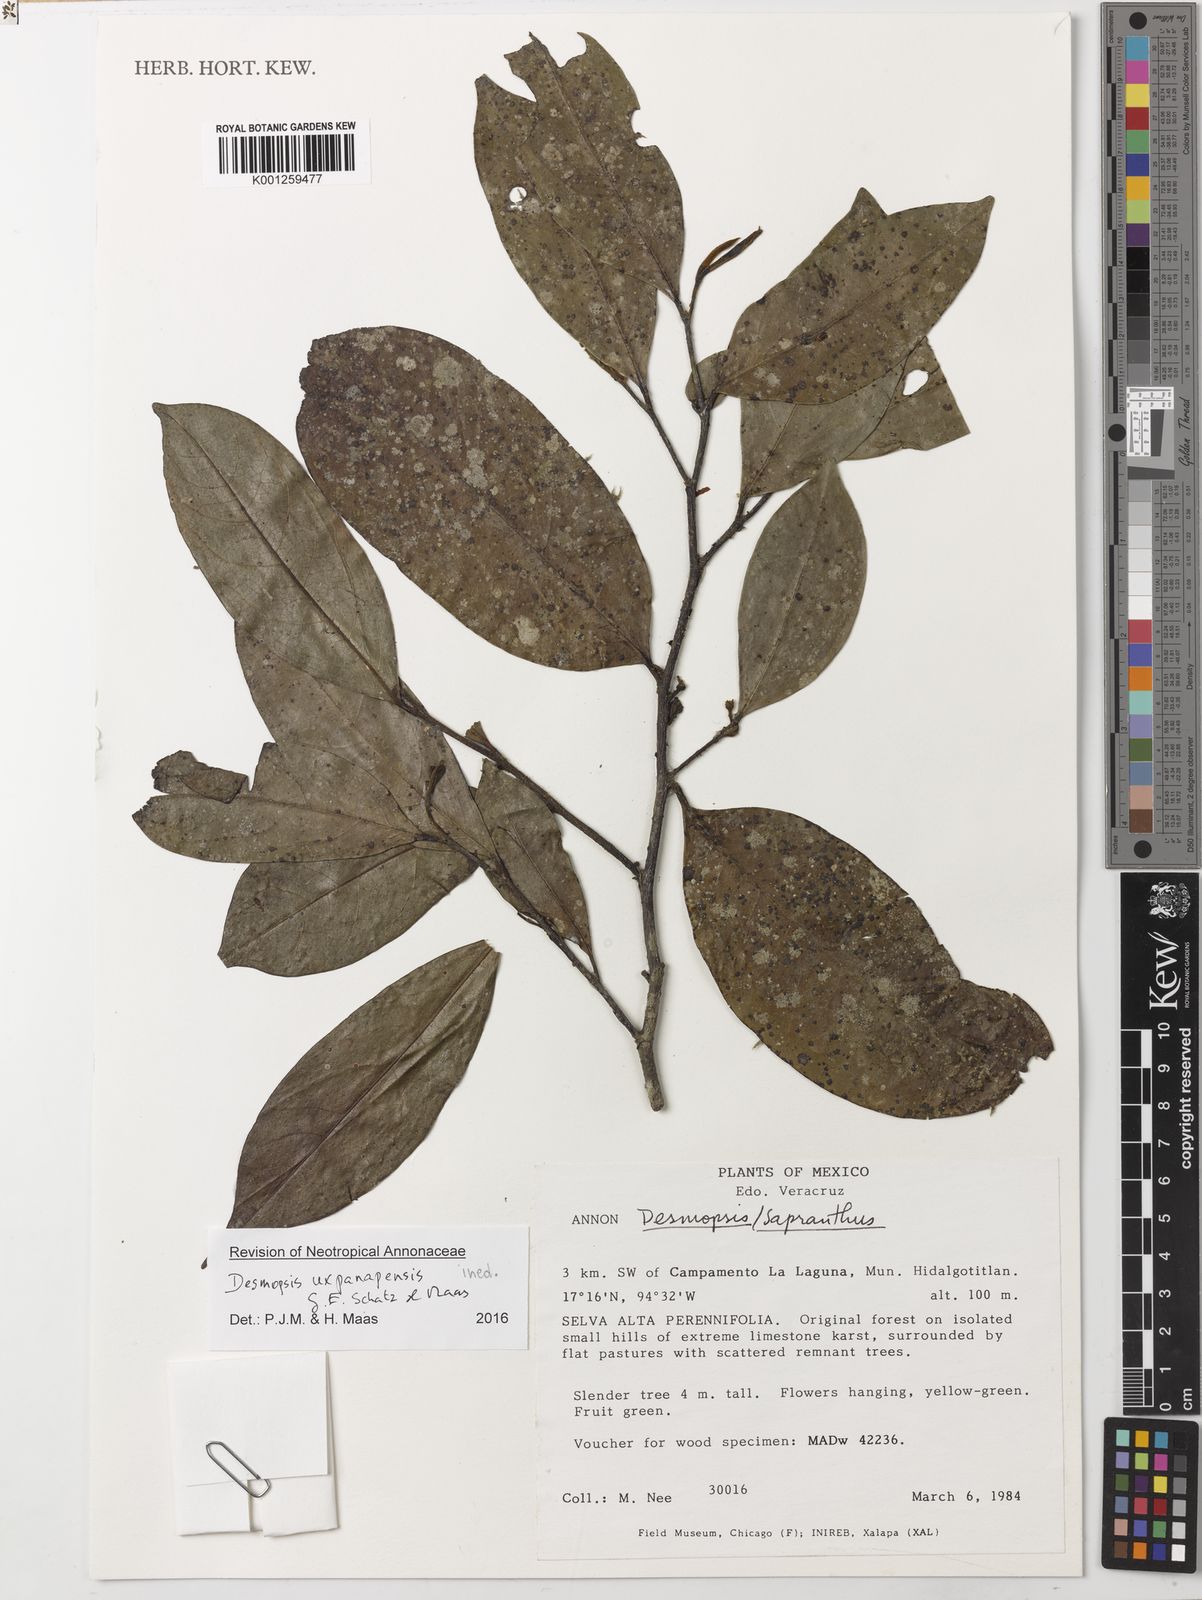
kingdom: Plantae
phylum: Tracheophyta
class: Magnoliopsida
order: Magnoliales
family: Annonaceae
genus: Desmopsis
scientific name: Desmopsis
